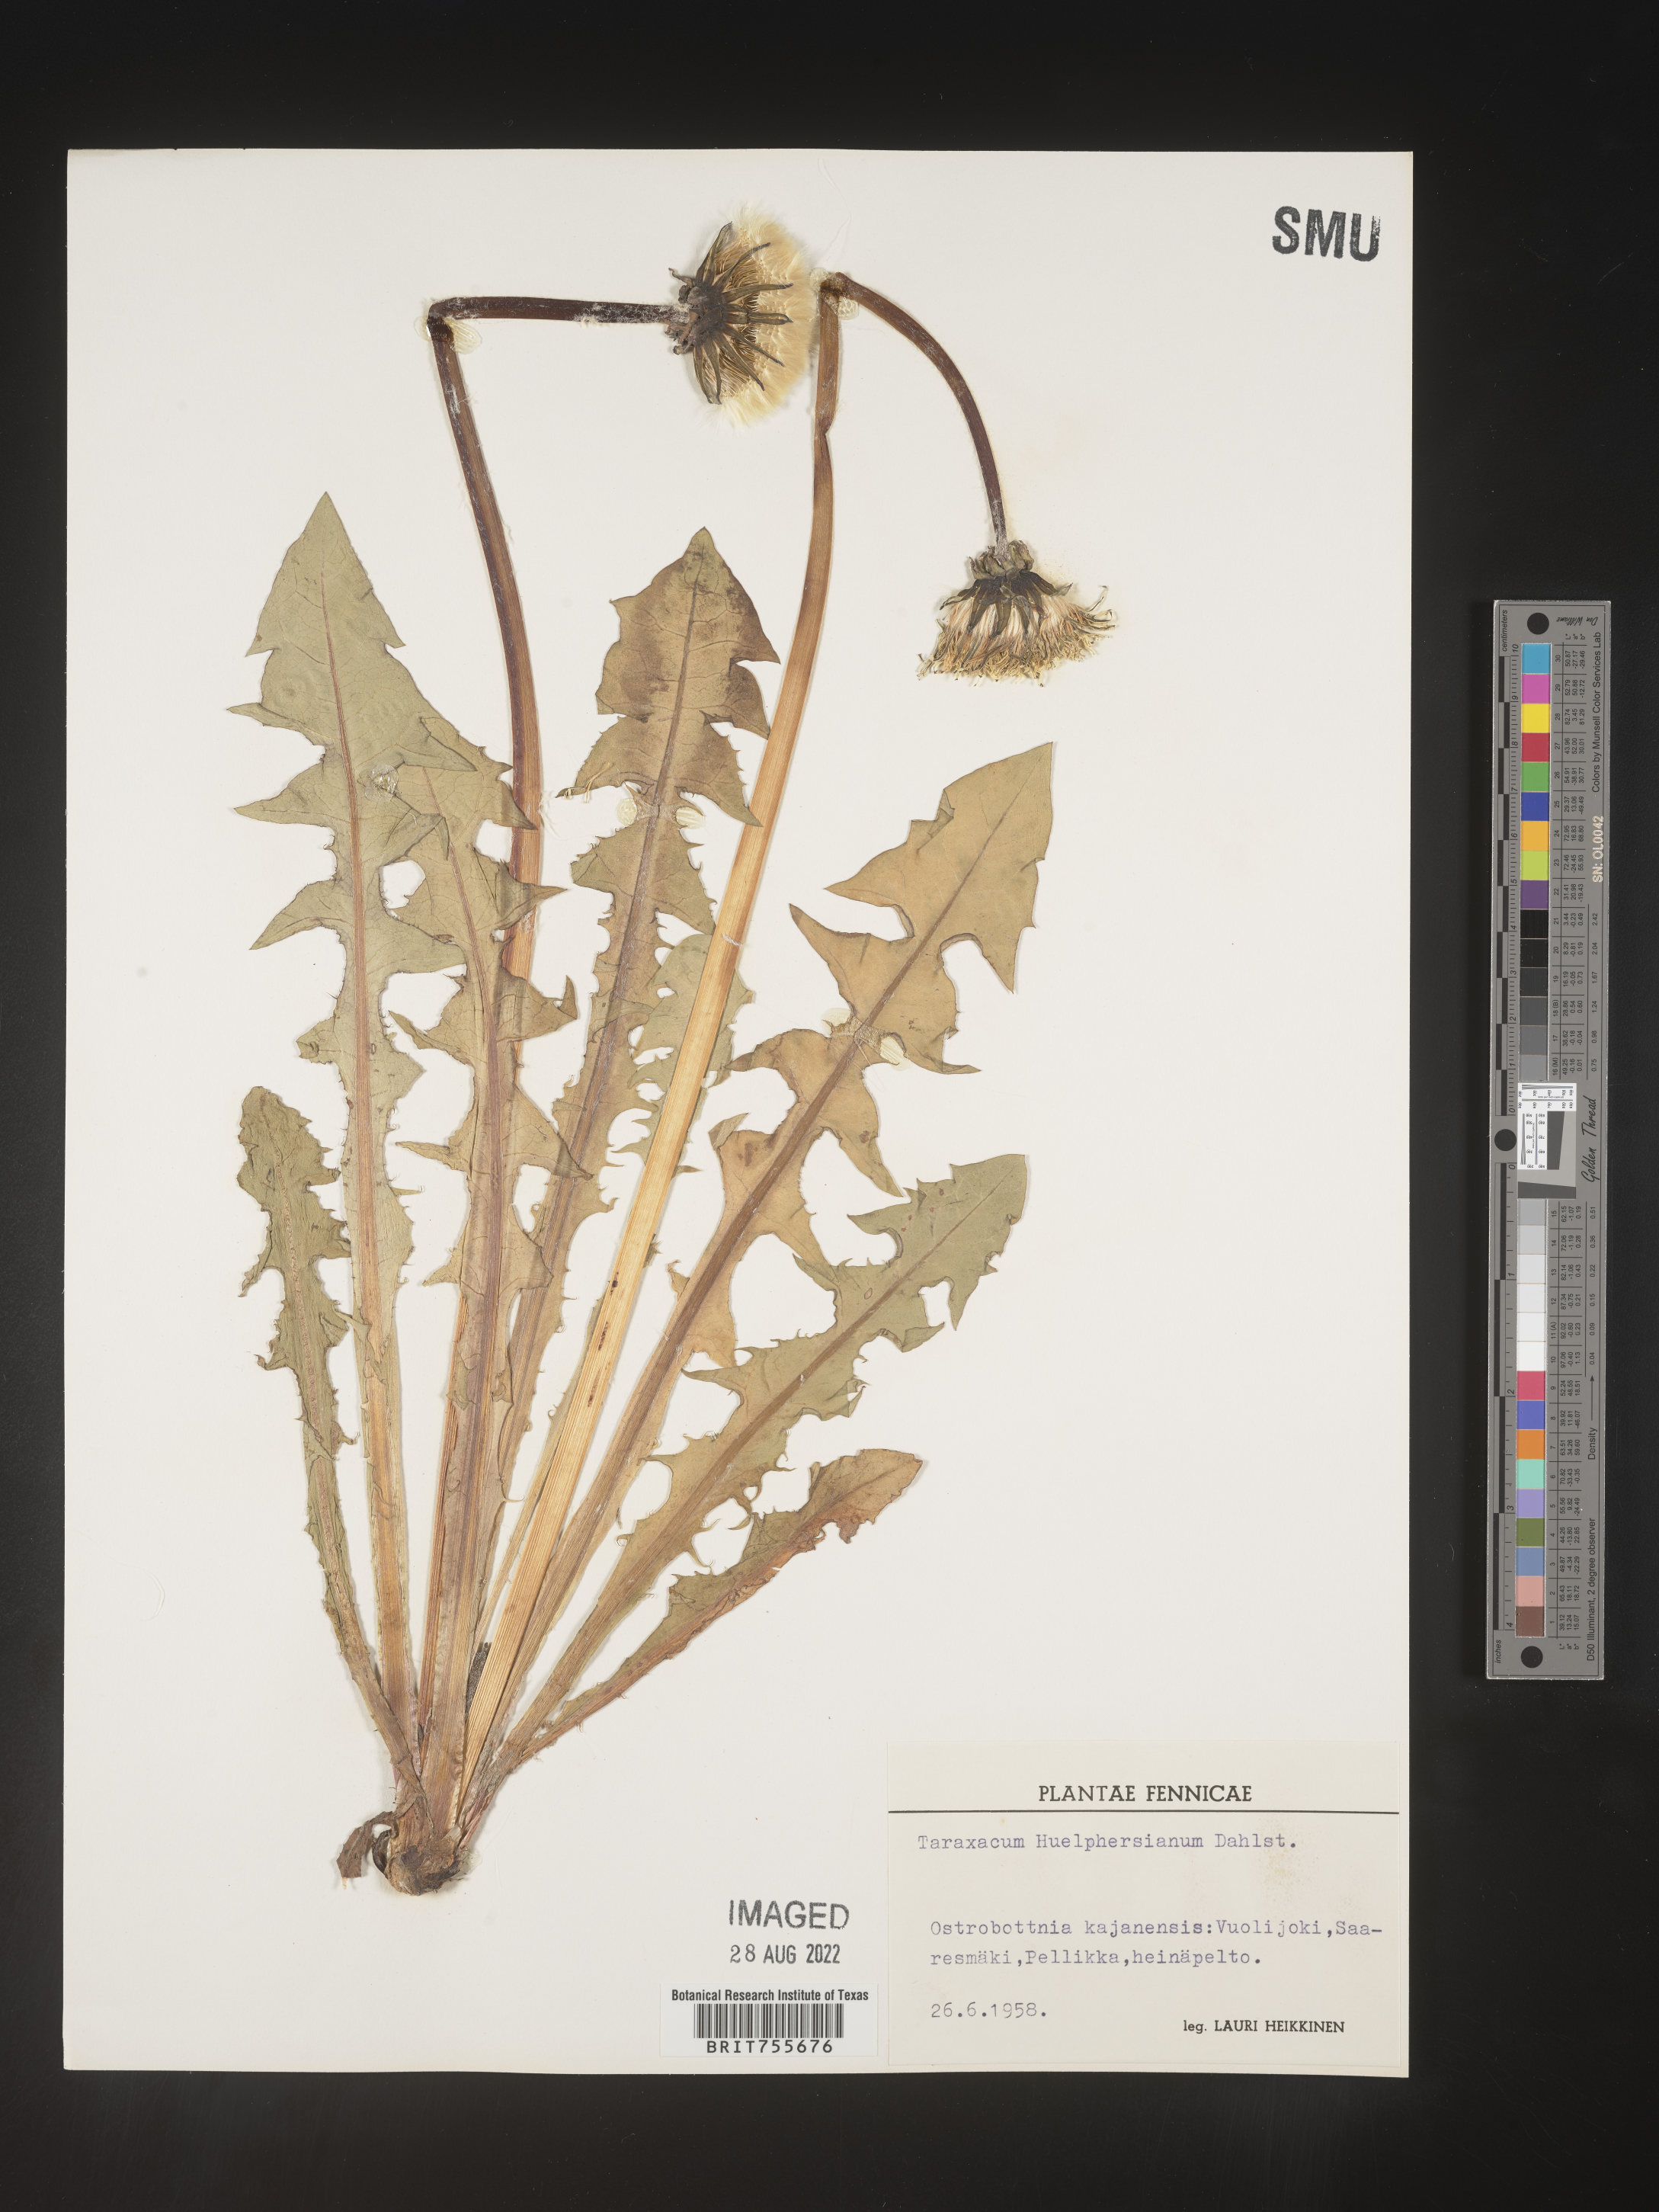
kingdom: Plantae
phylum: Tracheophyta
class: Magnoliopsida
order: Asterales
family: Asteraceae
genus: Taraxacum
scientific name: Taraxacum
